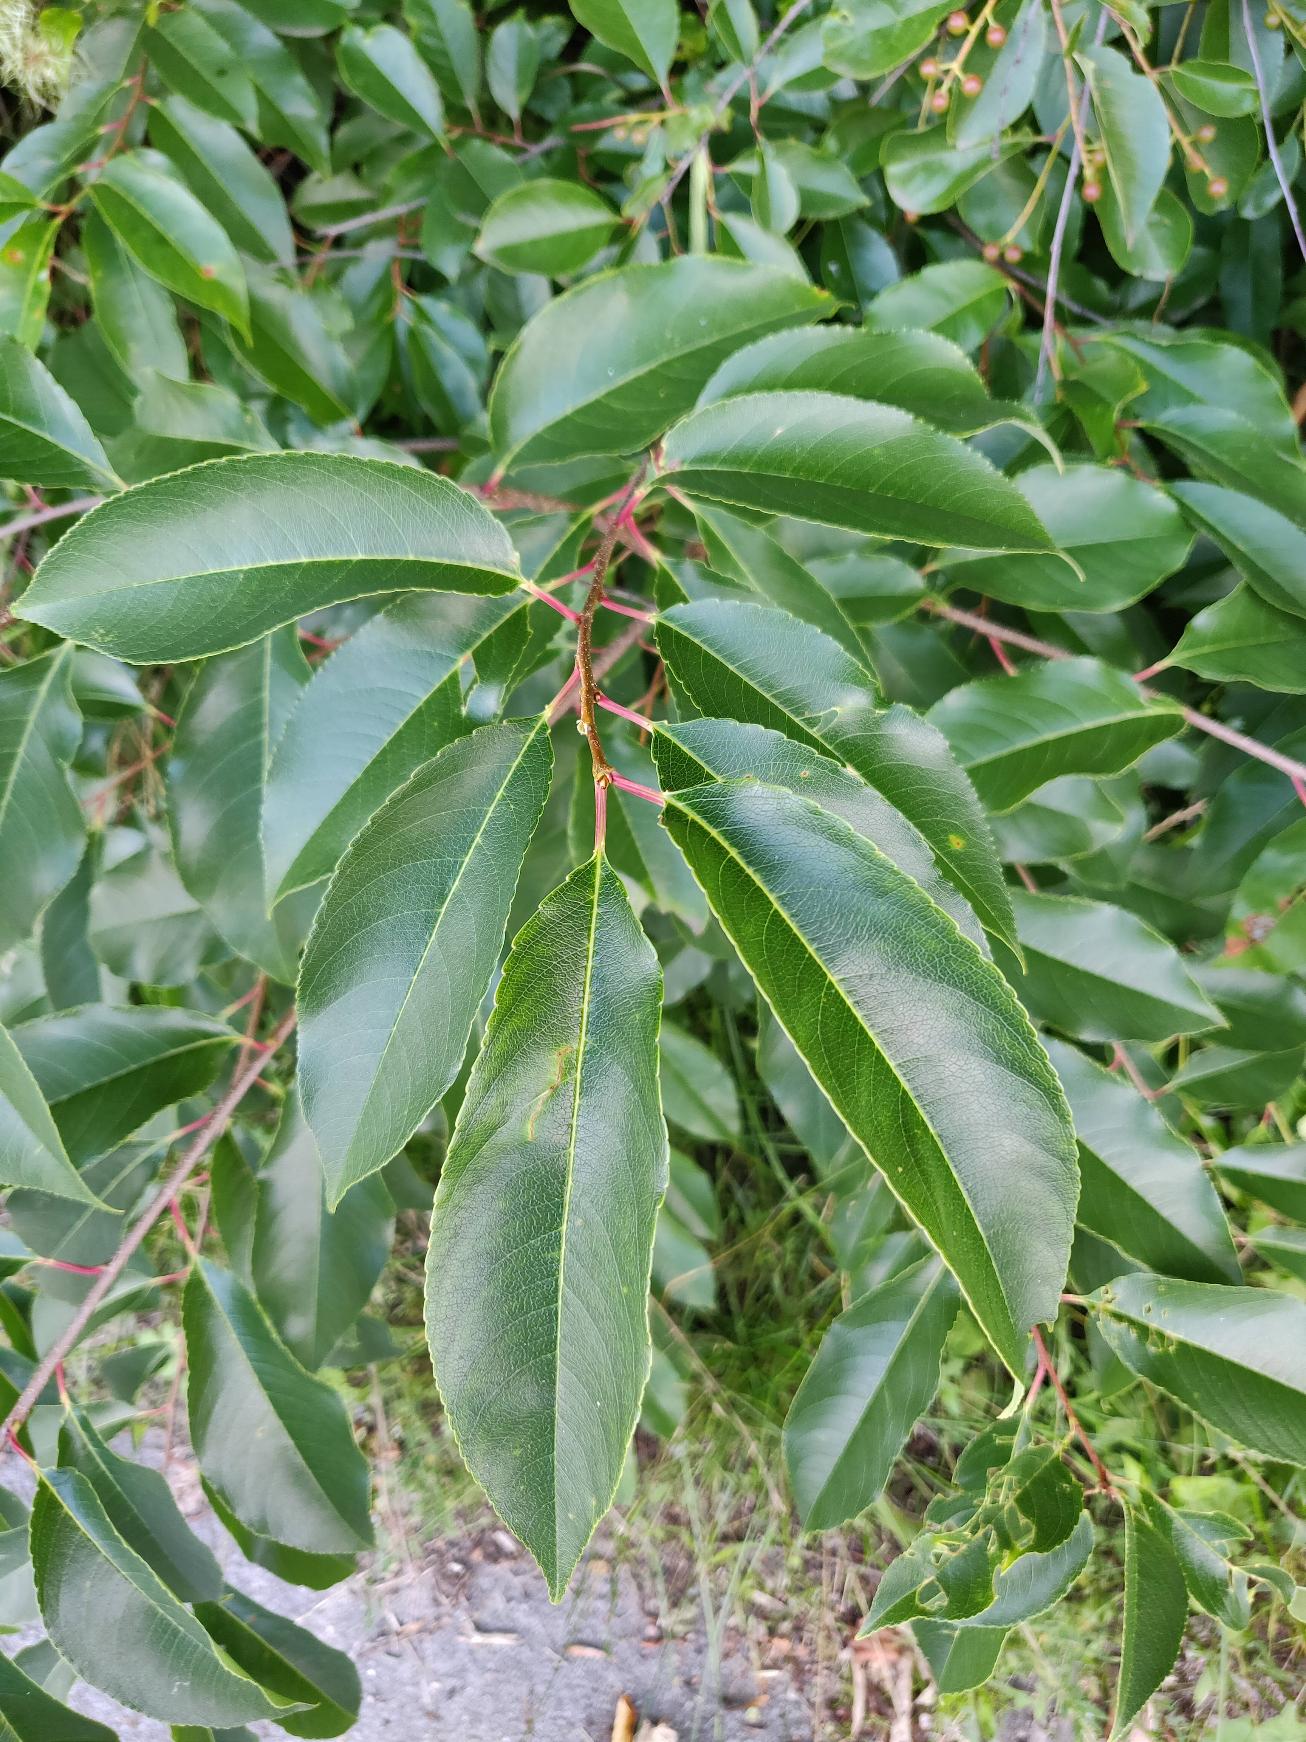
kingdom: Plantae
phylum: Tracheophyta
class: Magnoliopsida
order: Rosales
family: Rosaceae
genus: Prunus
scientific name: Prunus serotina
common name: Glansbladet hæg
